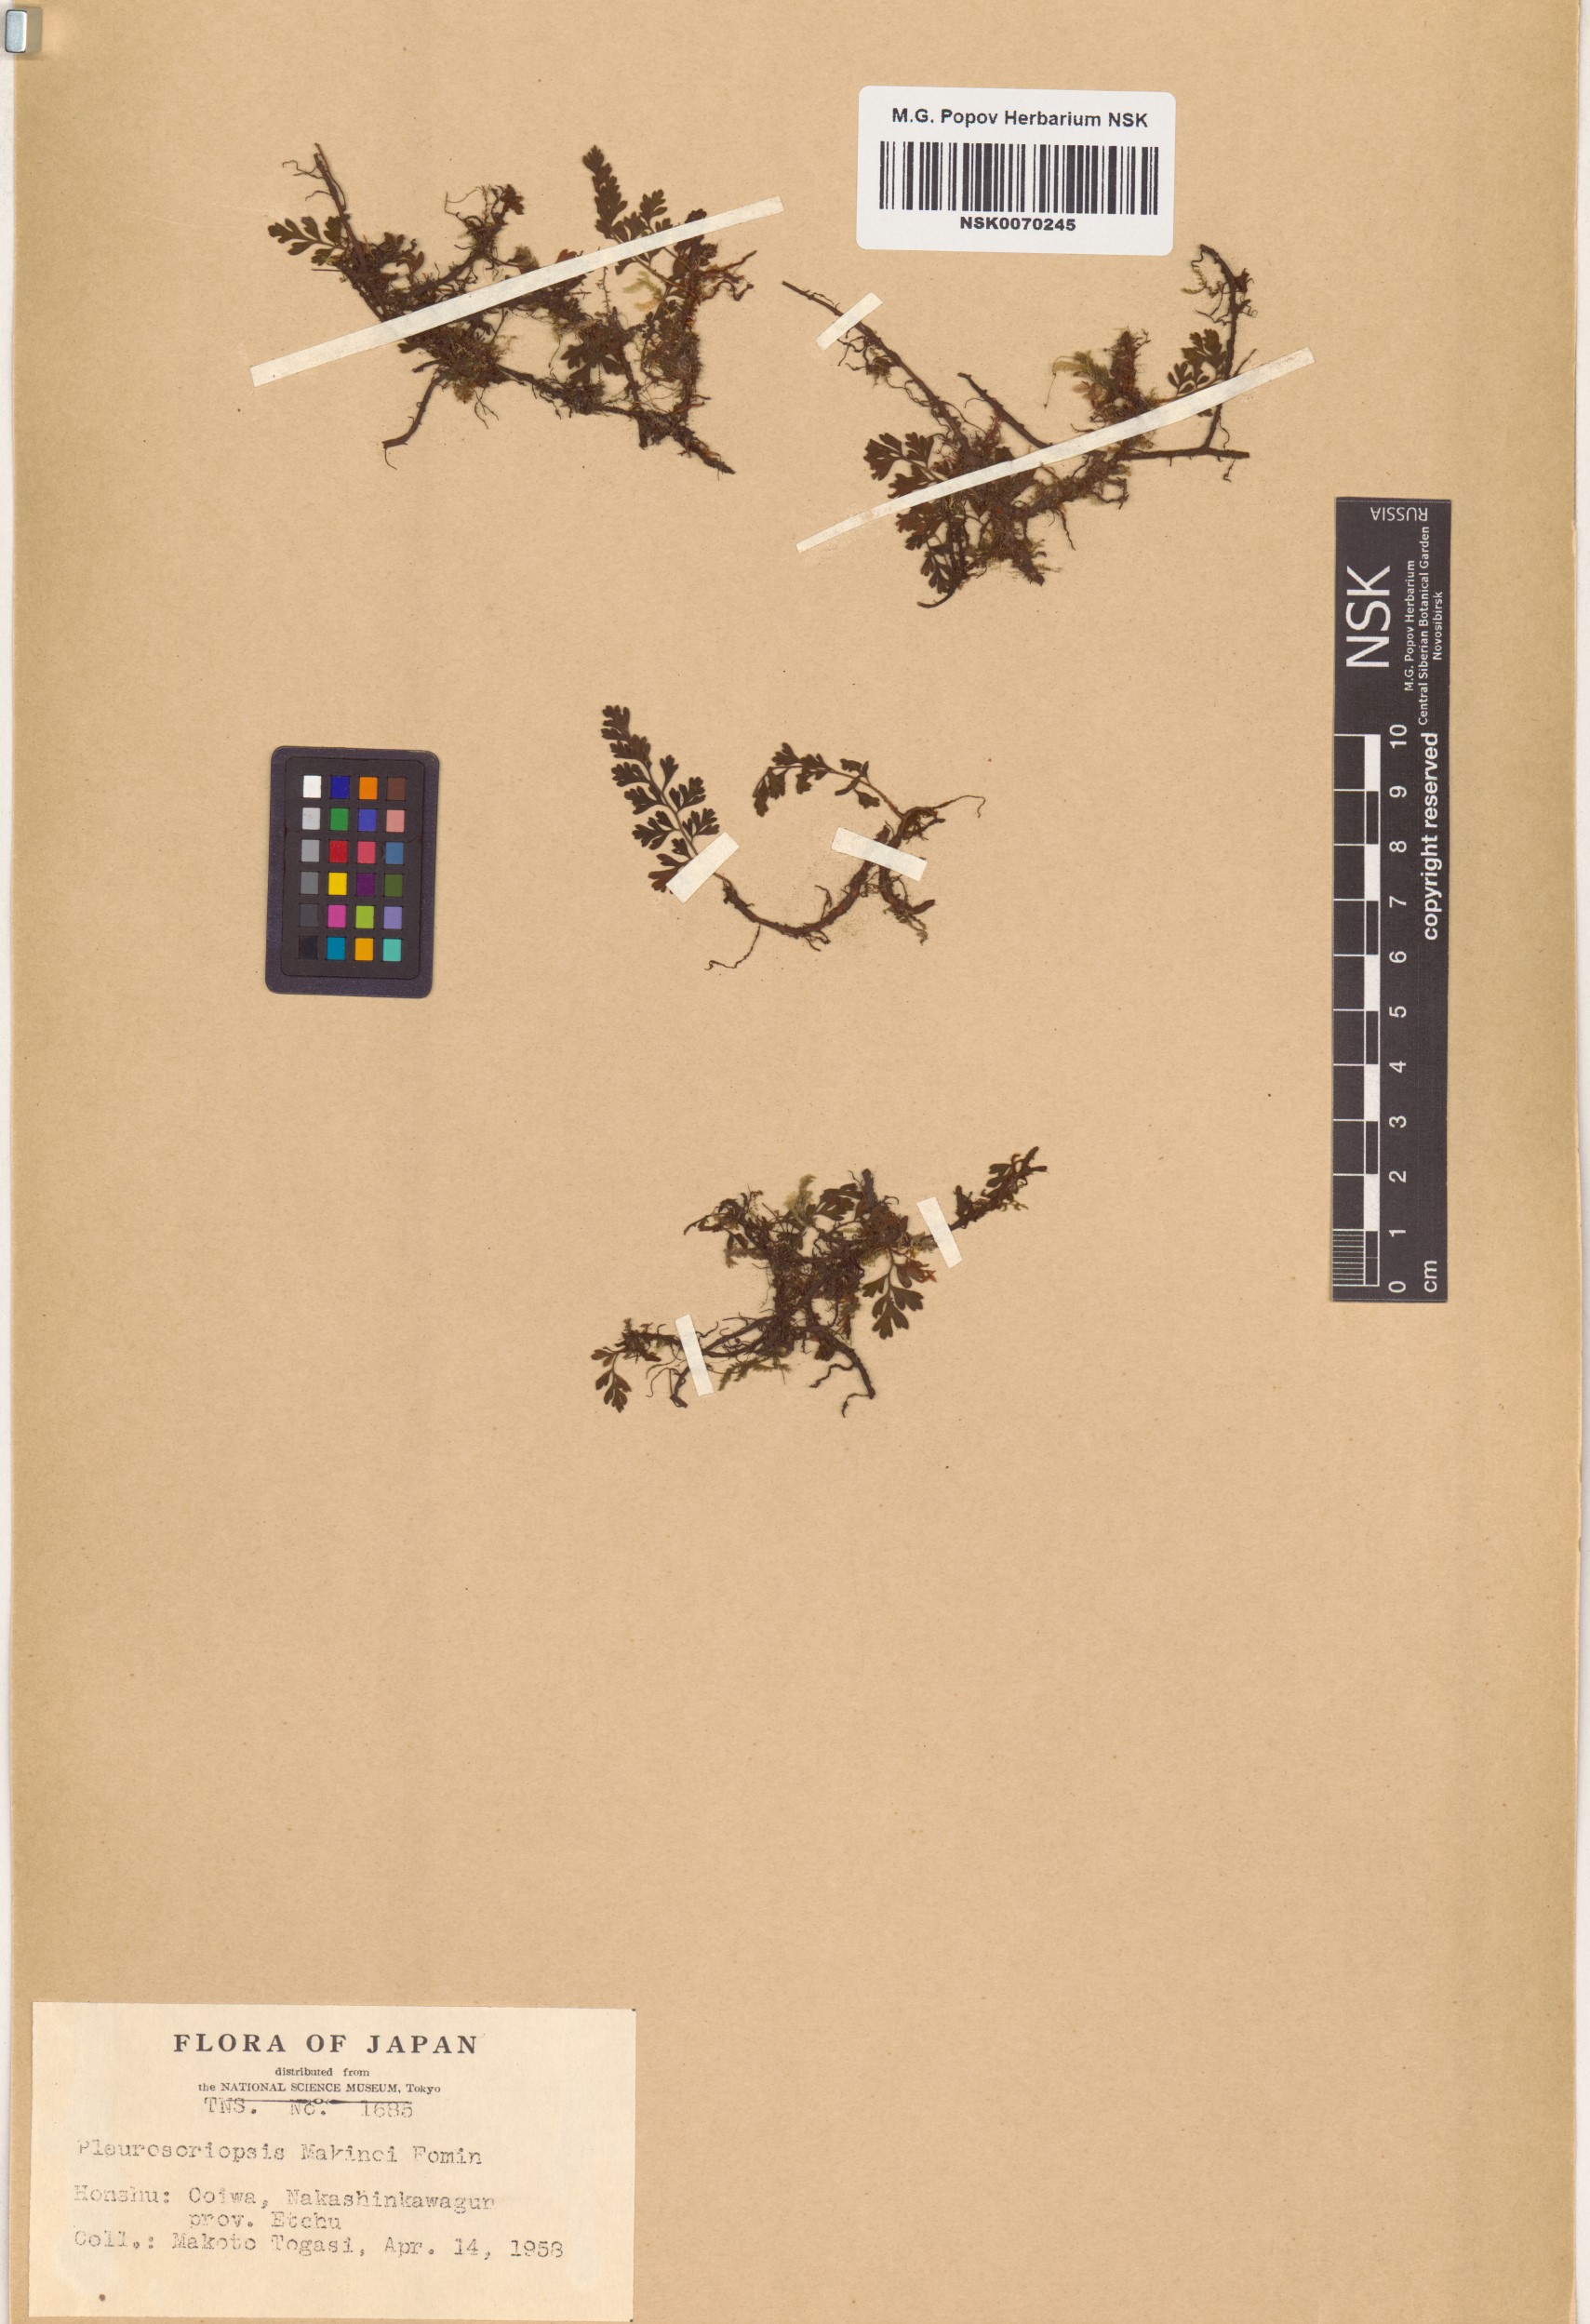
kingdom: Plantae
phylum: Tracheophyta
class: Polypodiopsida
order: Polypodiales
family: Polypodiaceae
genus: Pleurosoriopsis
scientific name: Pleurosoriopsis makinoi
